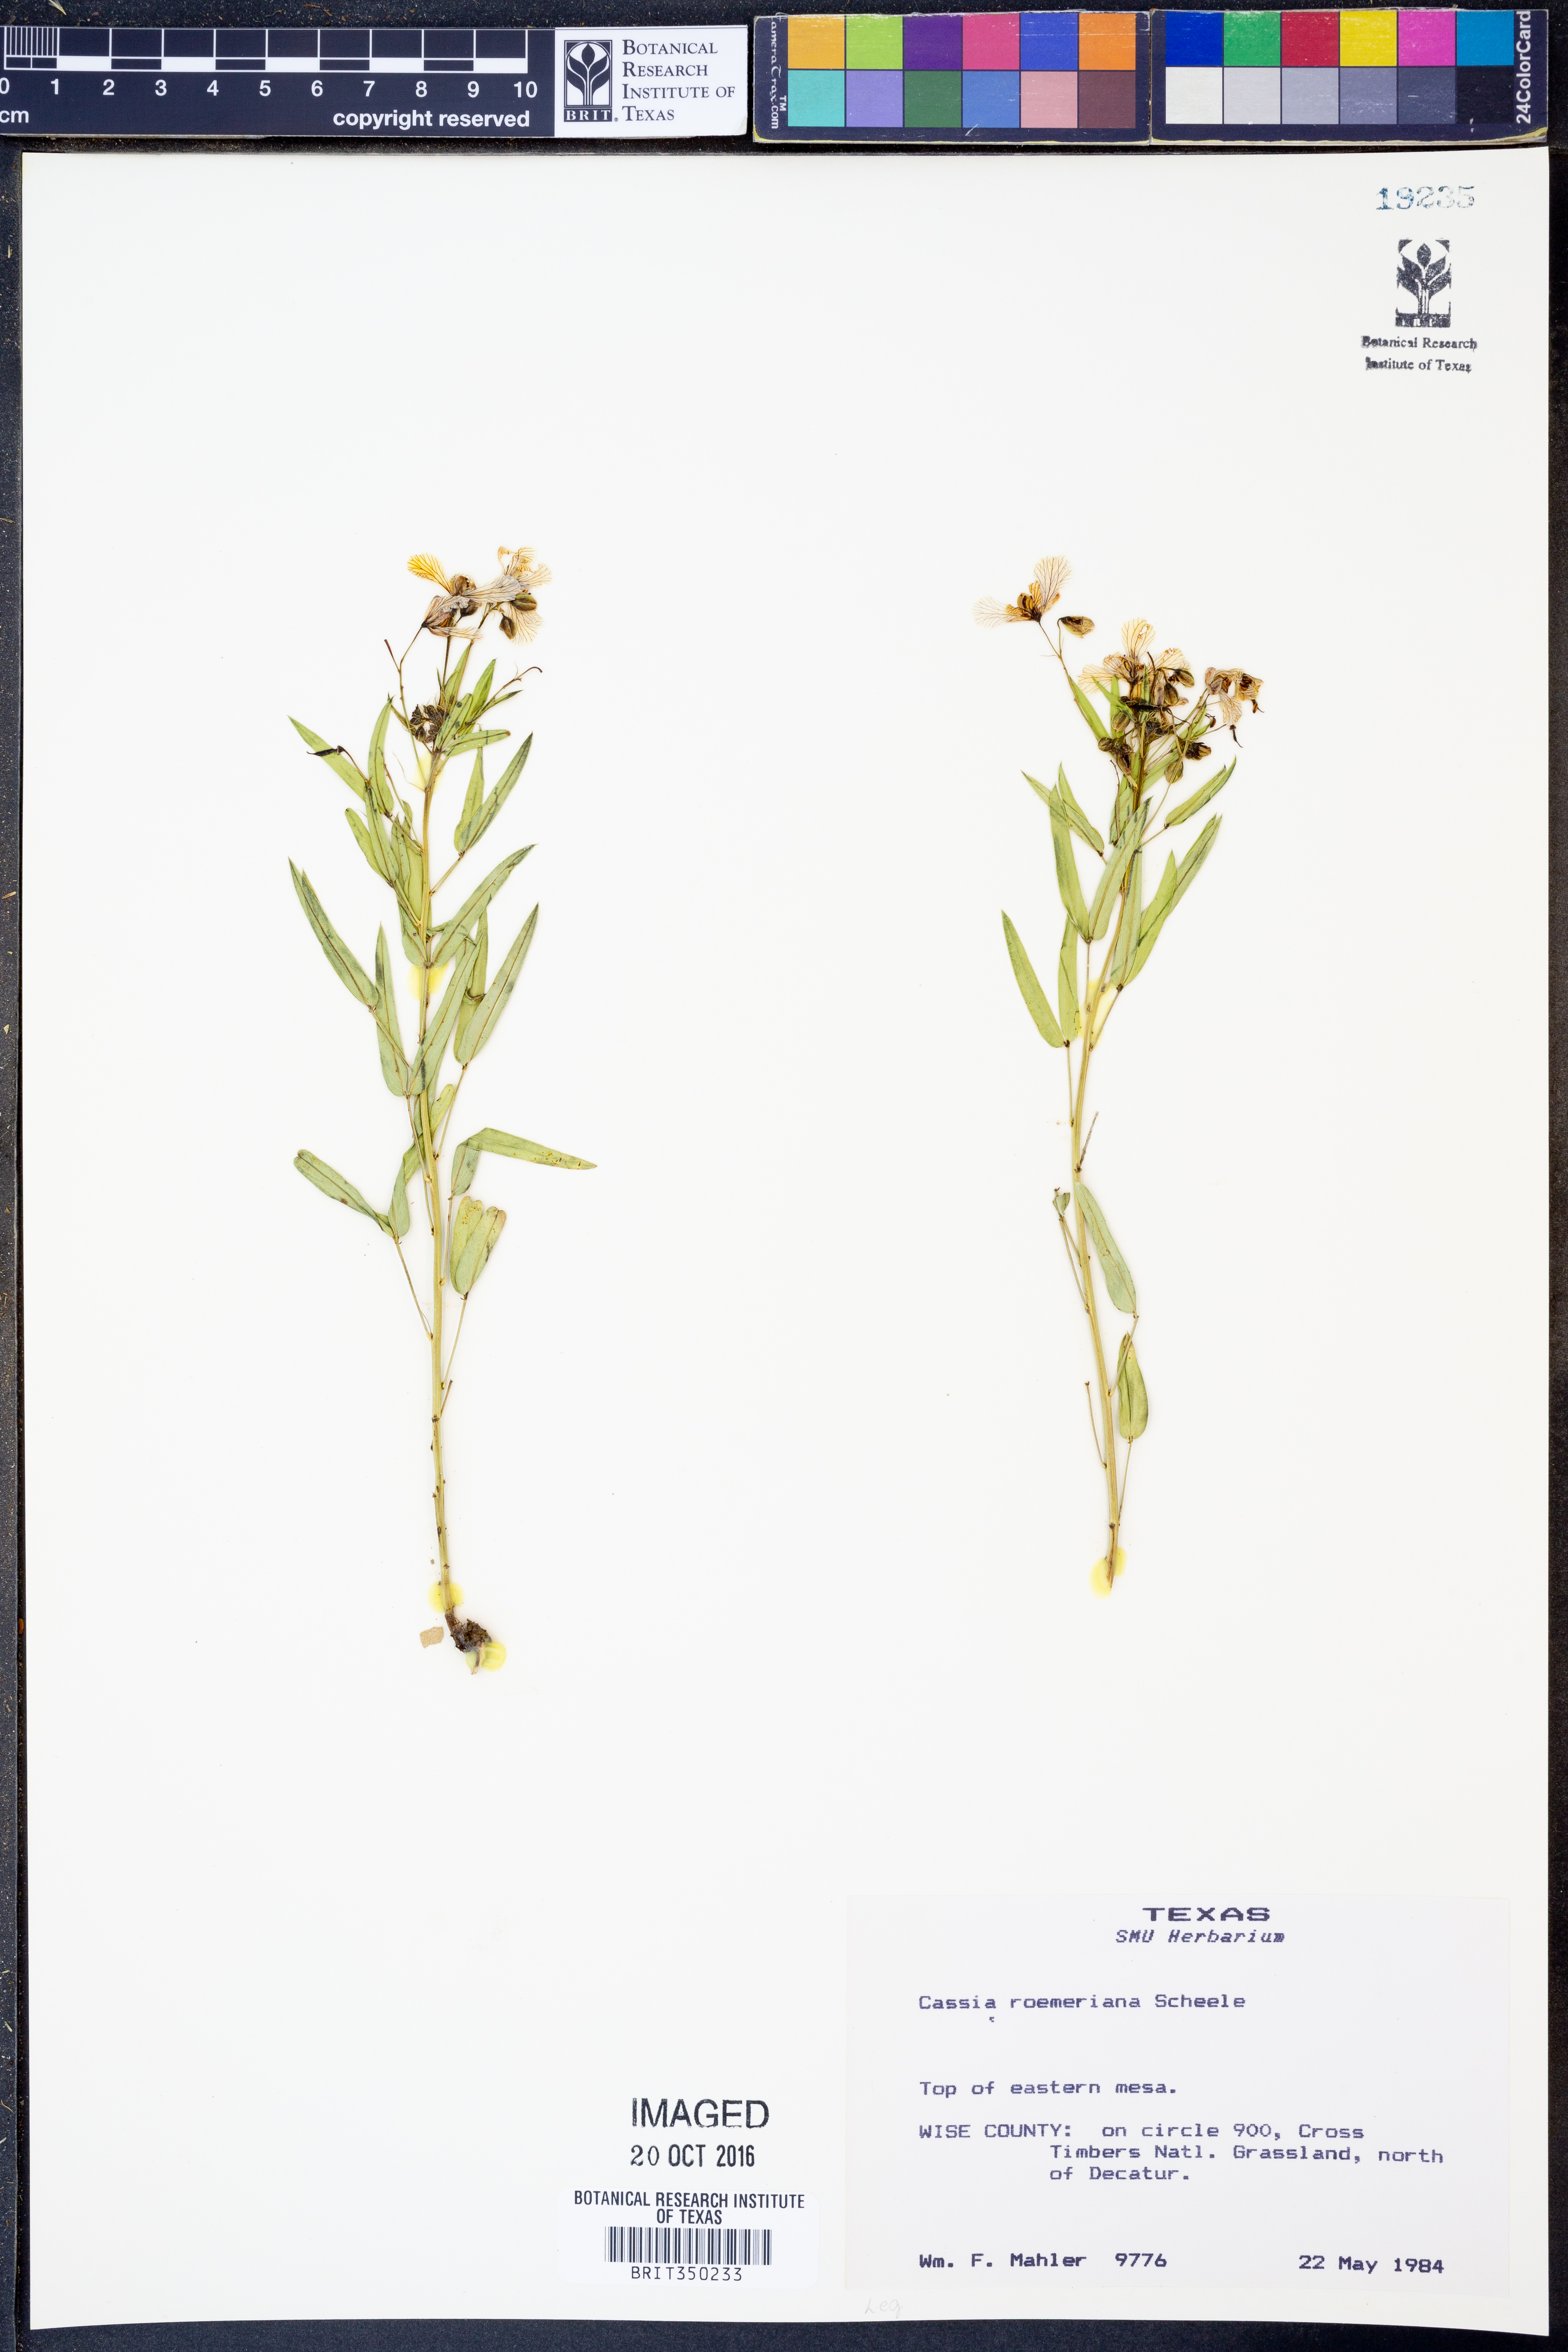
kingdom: Plantae
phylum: Tracheophyta
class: Magnoliopsida
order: Fabales
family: Fabaceae
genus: Senna
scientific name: Senna roemeriana
